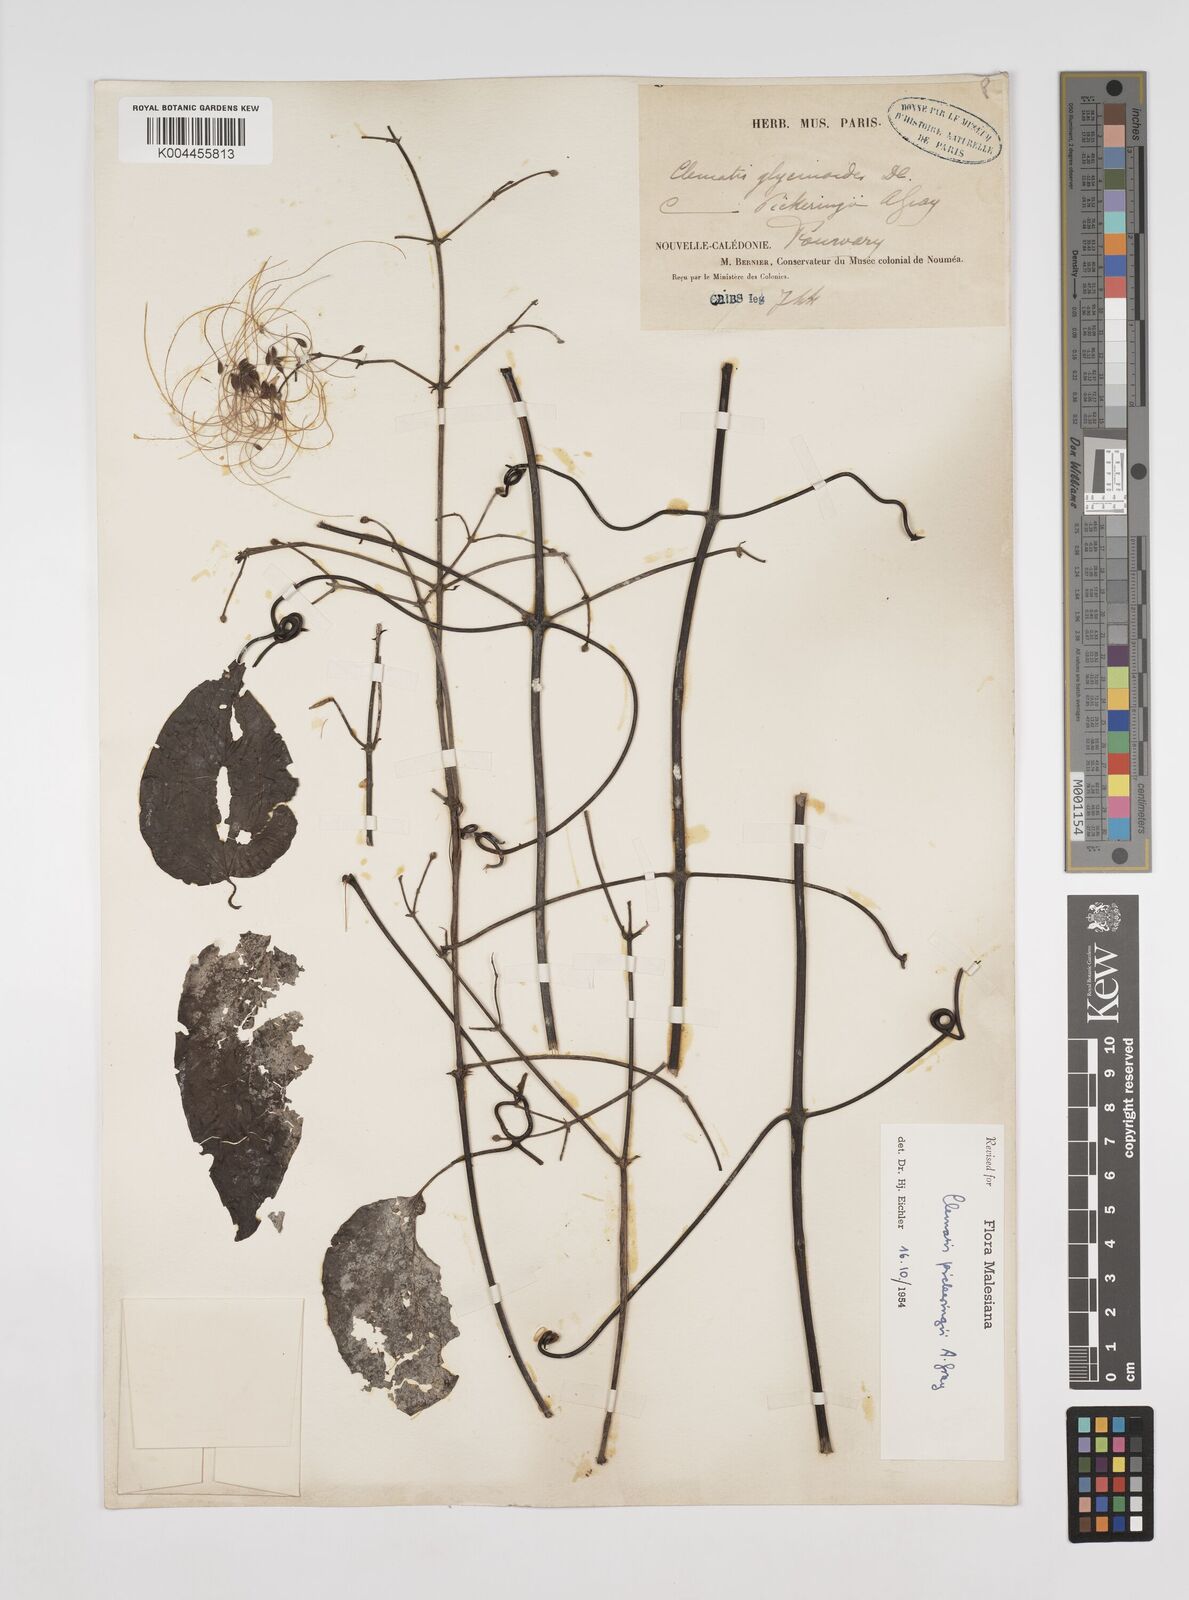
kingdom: Plantae
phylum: Tracheophyta
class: Magnoliopsida
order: Ranunculales
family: Ranunculaceae
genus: Clematis
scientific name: Clematis pickeringii
